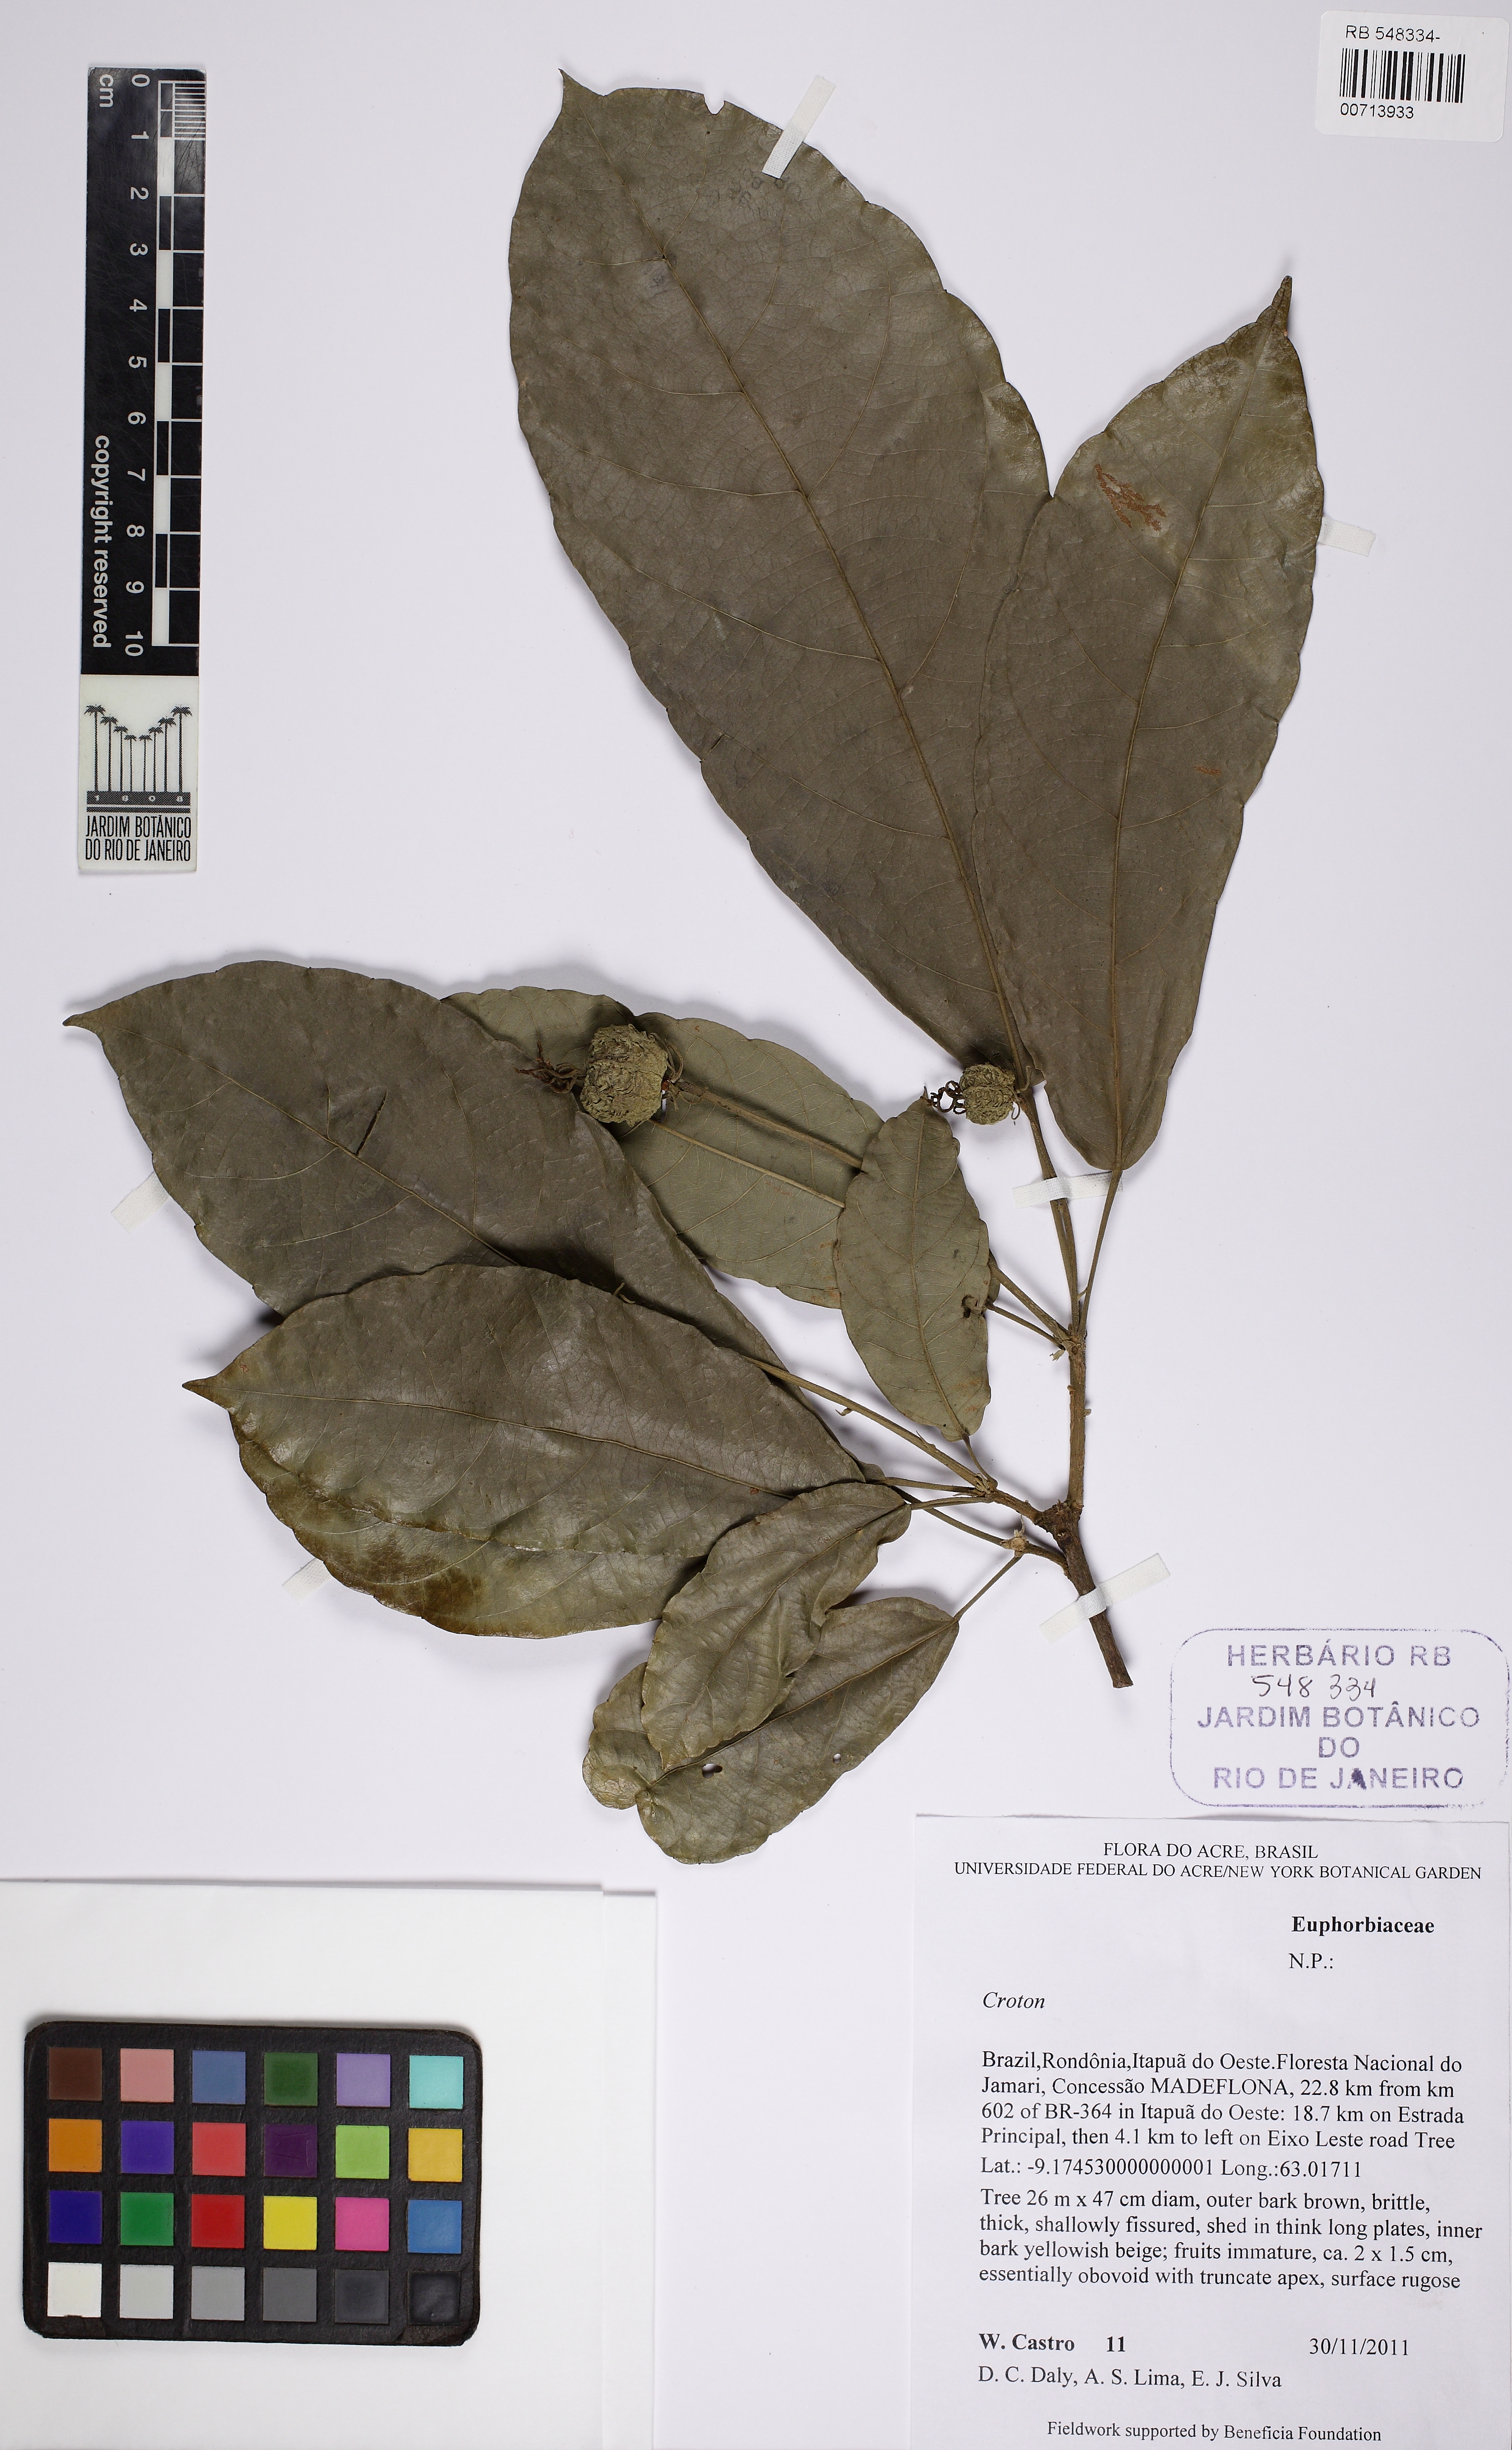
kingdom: Plantae
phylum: Tracheophyta
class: Magnoliopsida
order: Malpighiales
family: Euphorbiaceae
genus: Croton
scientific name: Croton
